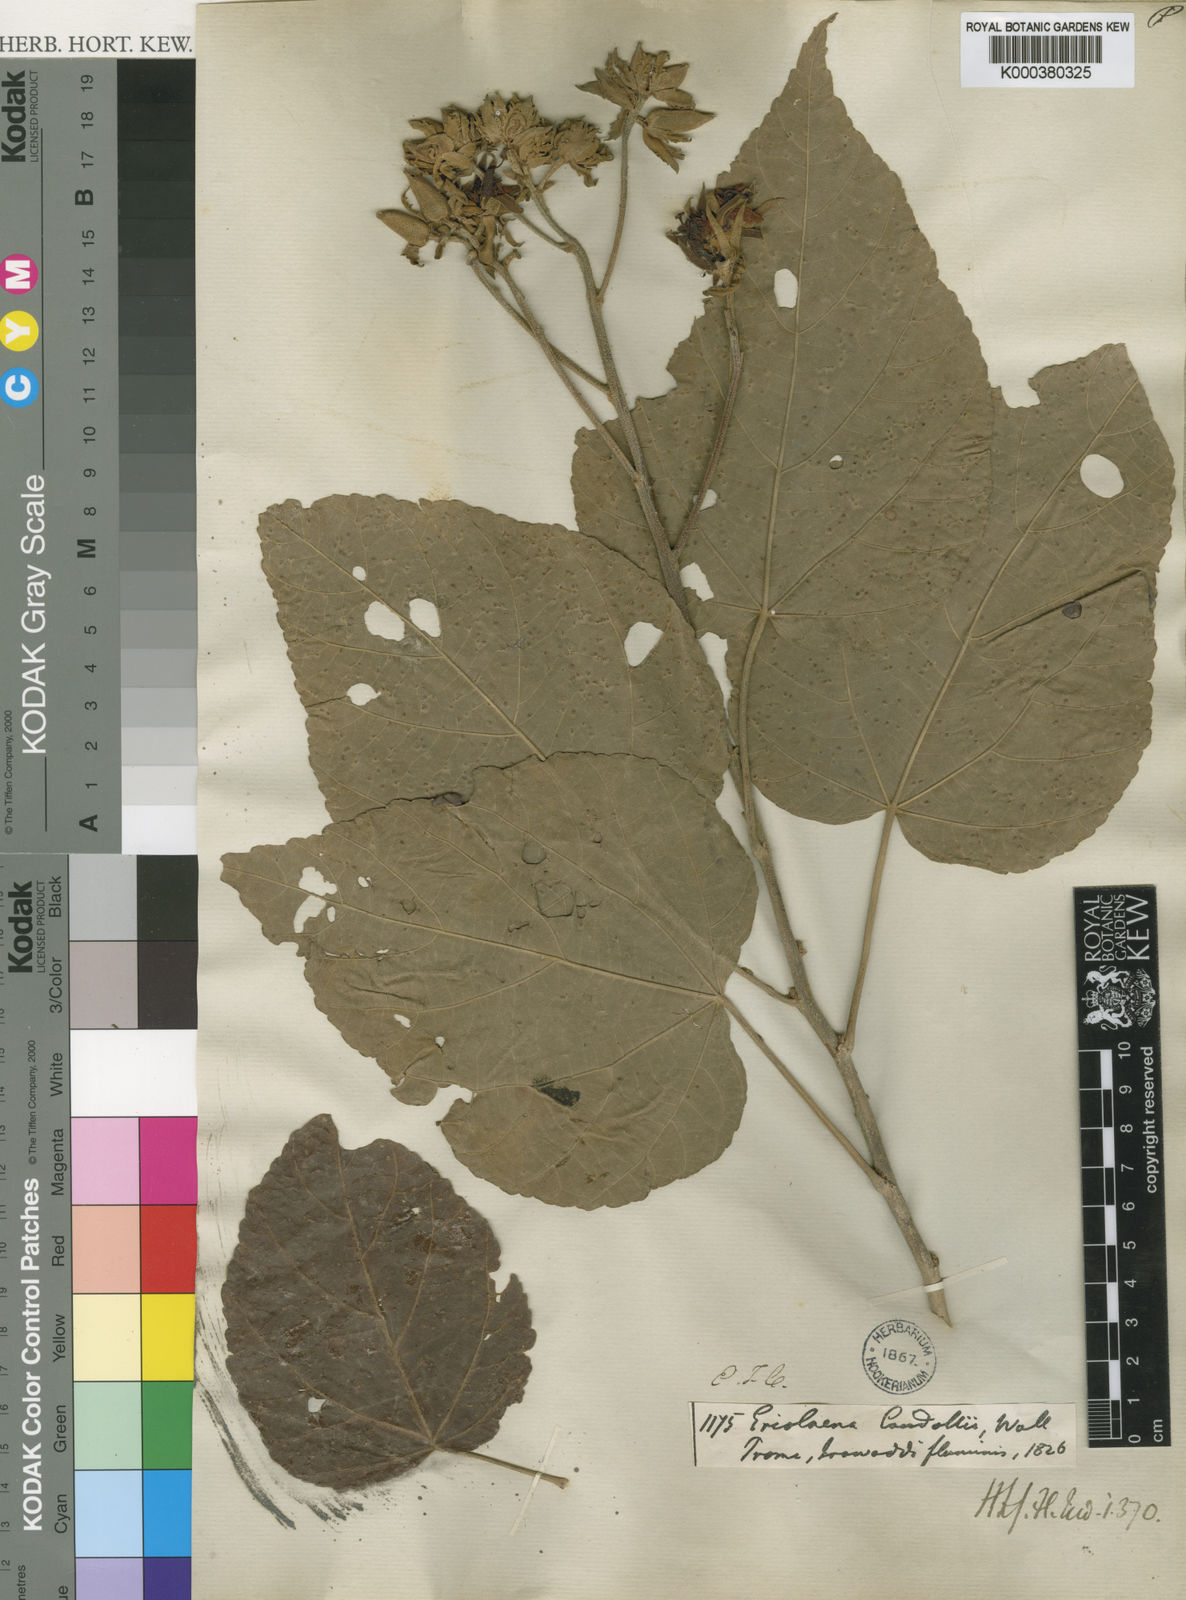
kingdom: Plantae
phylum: Tracheophyta
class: Magnoliopsida
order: Malvales
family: Malvaceae
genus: Eriolaena
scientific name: Eriolaena candollei
